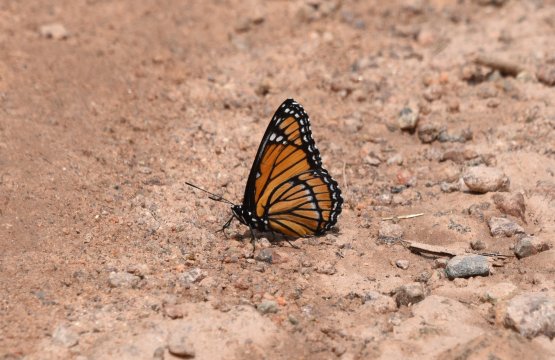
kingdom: Animalia
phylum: Arthropoda
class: Insecta
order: Lepidoptera
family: Nymphalidae
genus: Limenitis
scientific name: Limenitis archippus
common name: Viceroy
